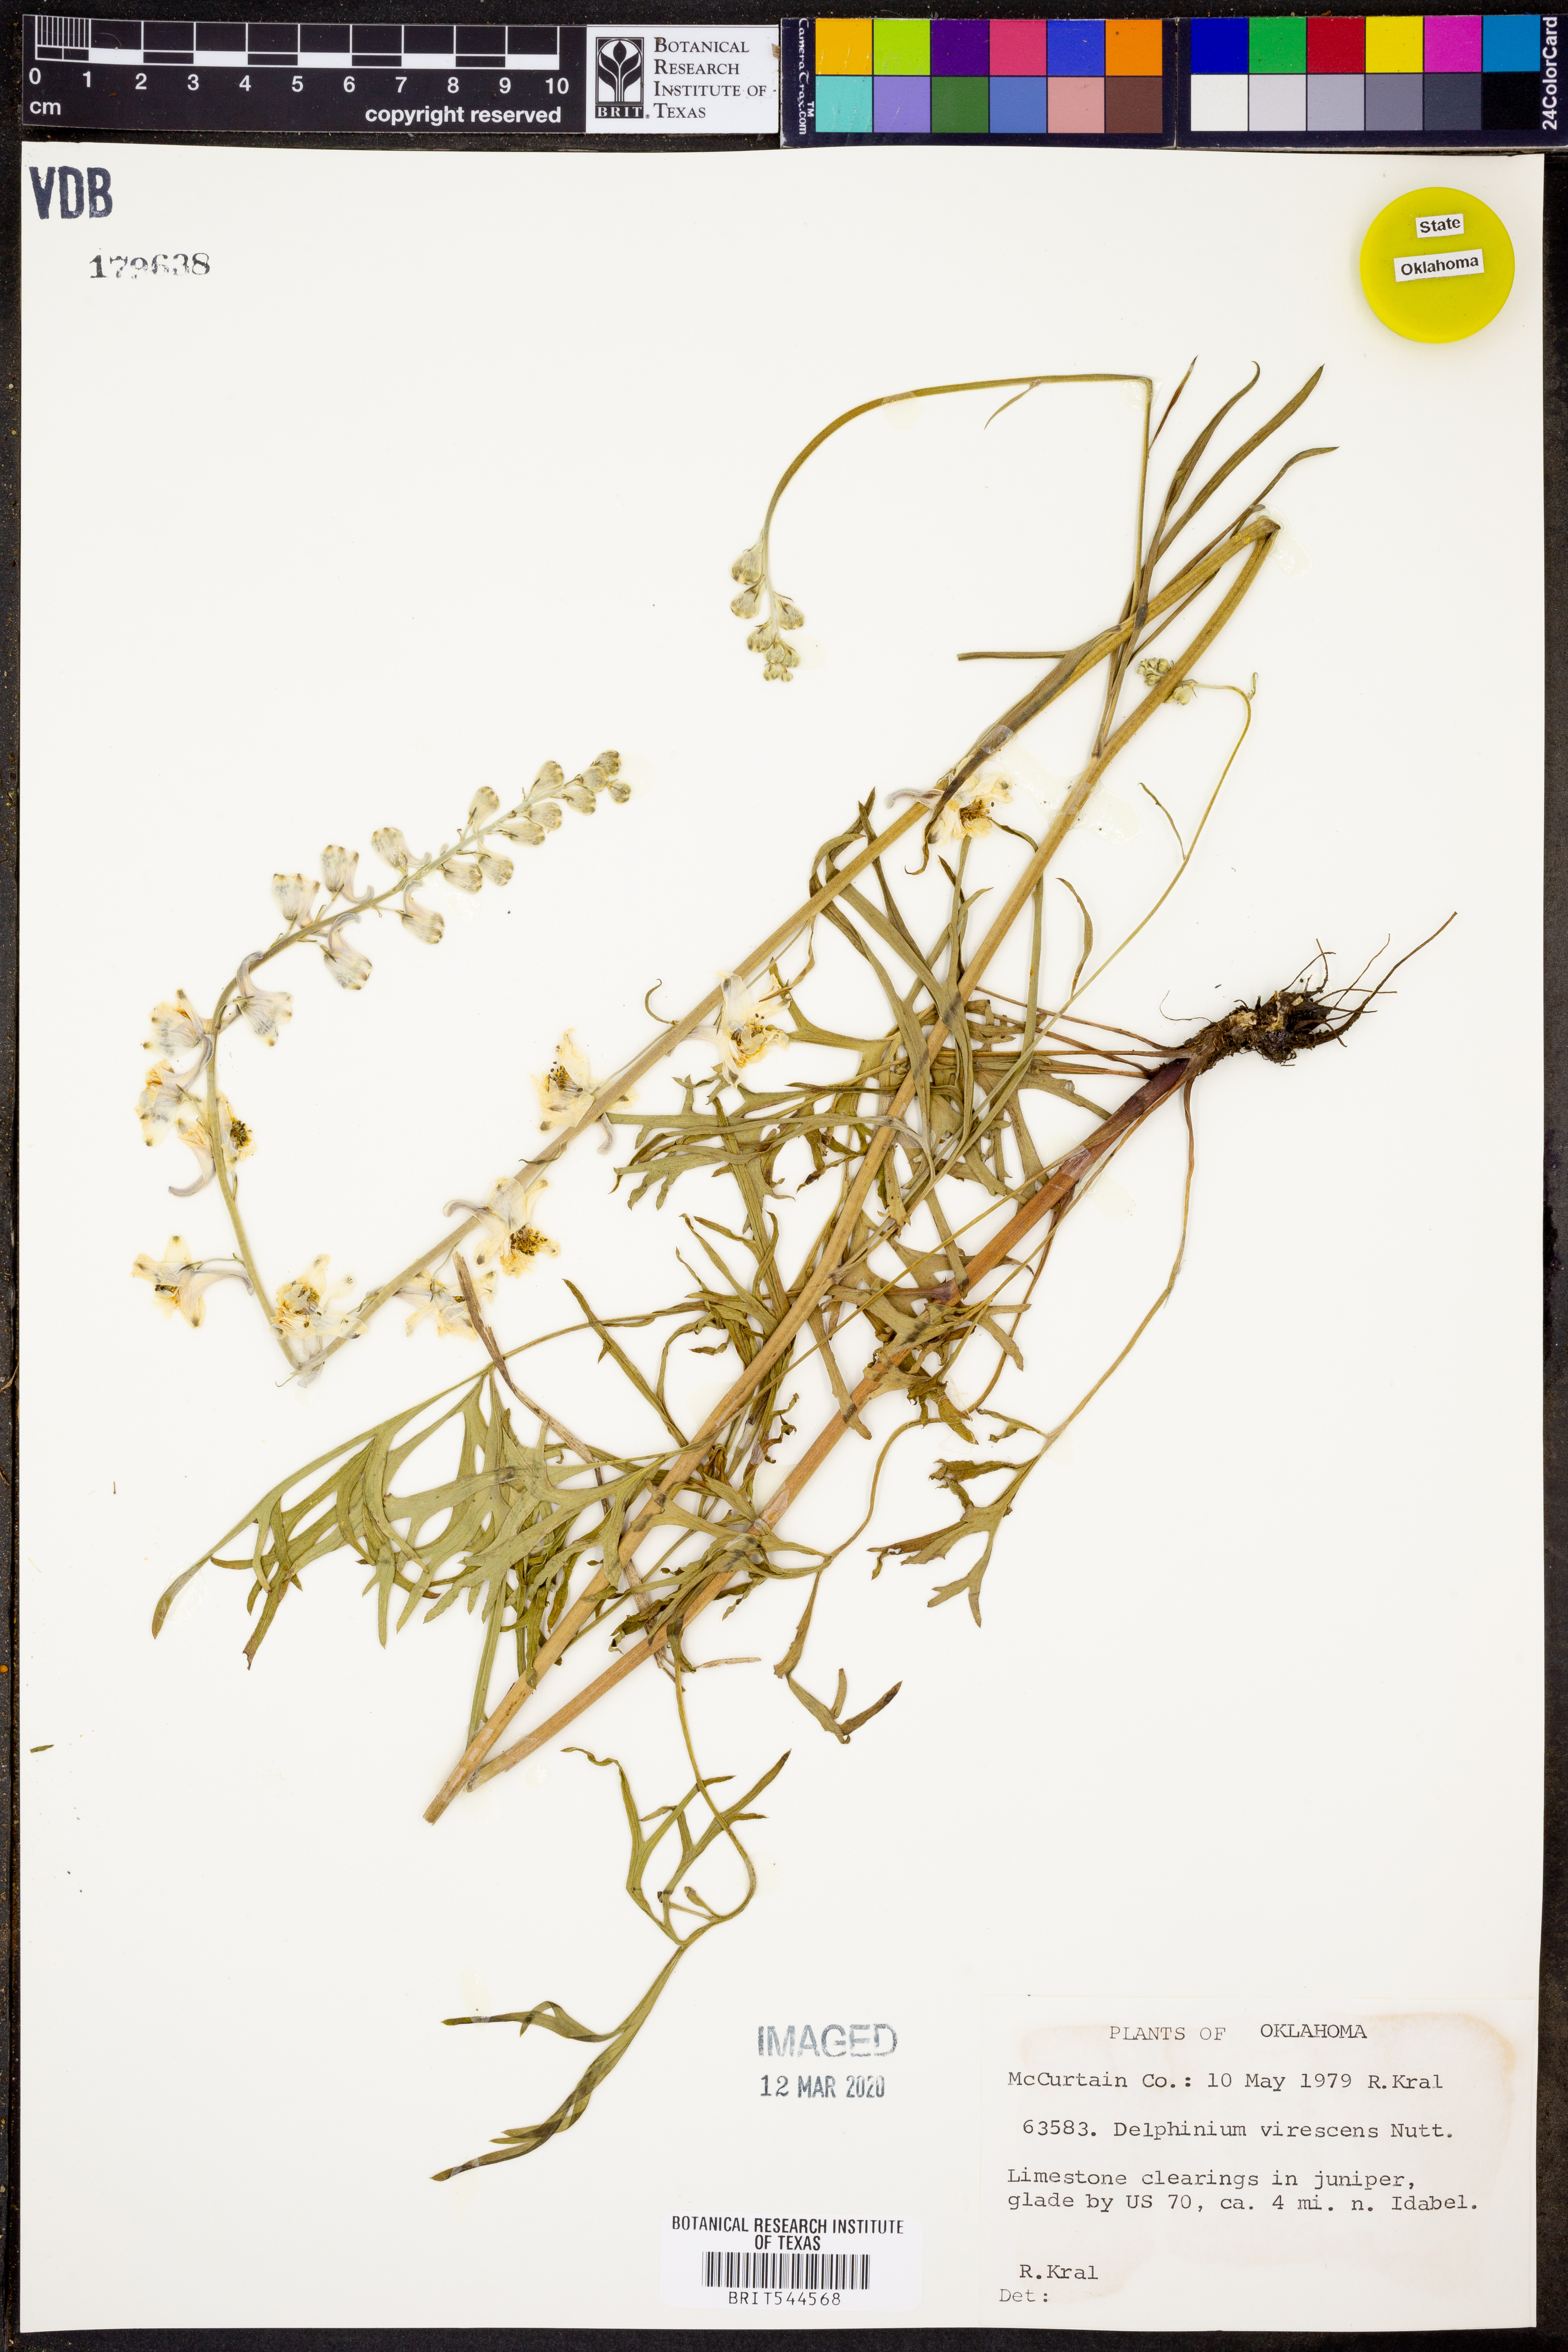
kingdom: Plantae
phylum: Tracheophyta
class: Magnoliopsida
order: Ranunculales
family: Ranunculaceae
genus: Delphinium
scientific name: Delphinium carolinianum
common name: Carolina larkspur
